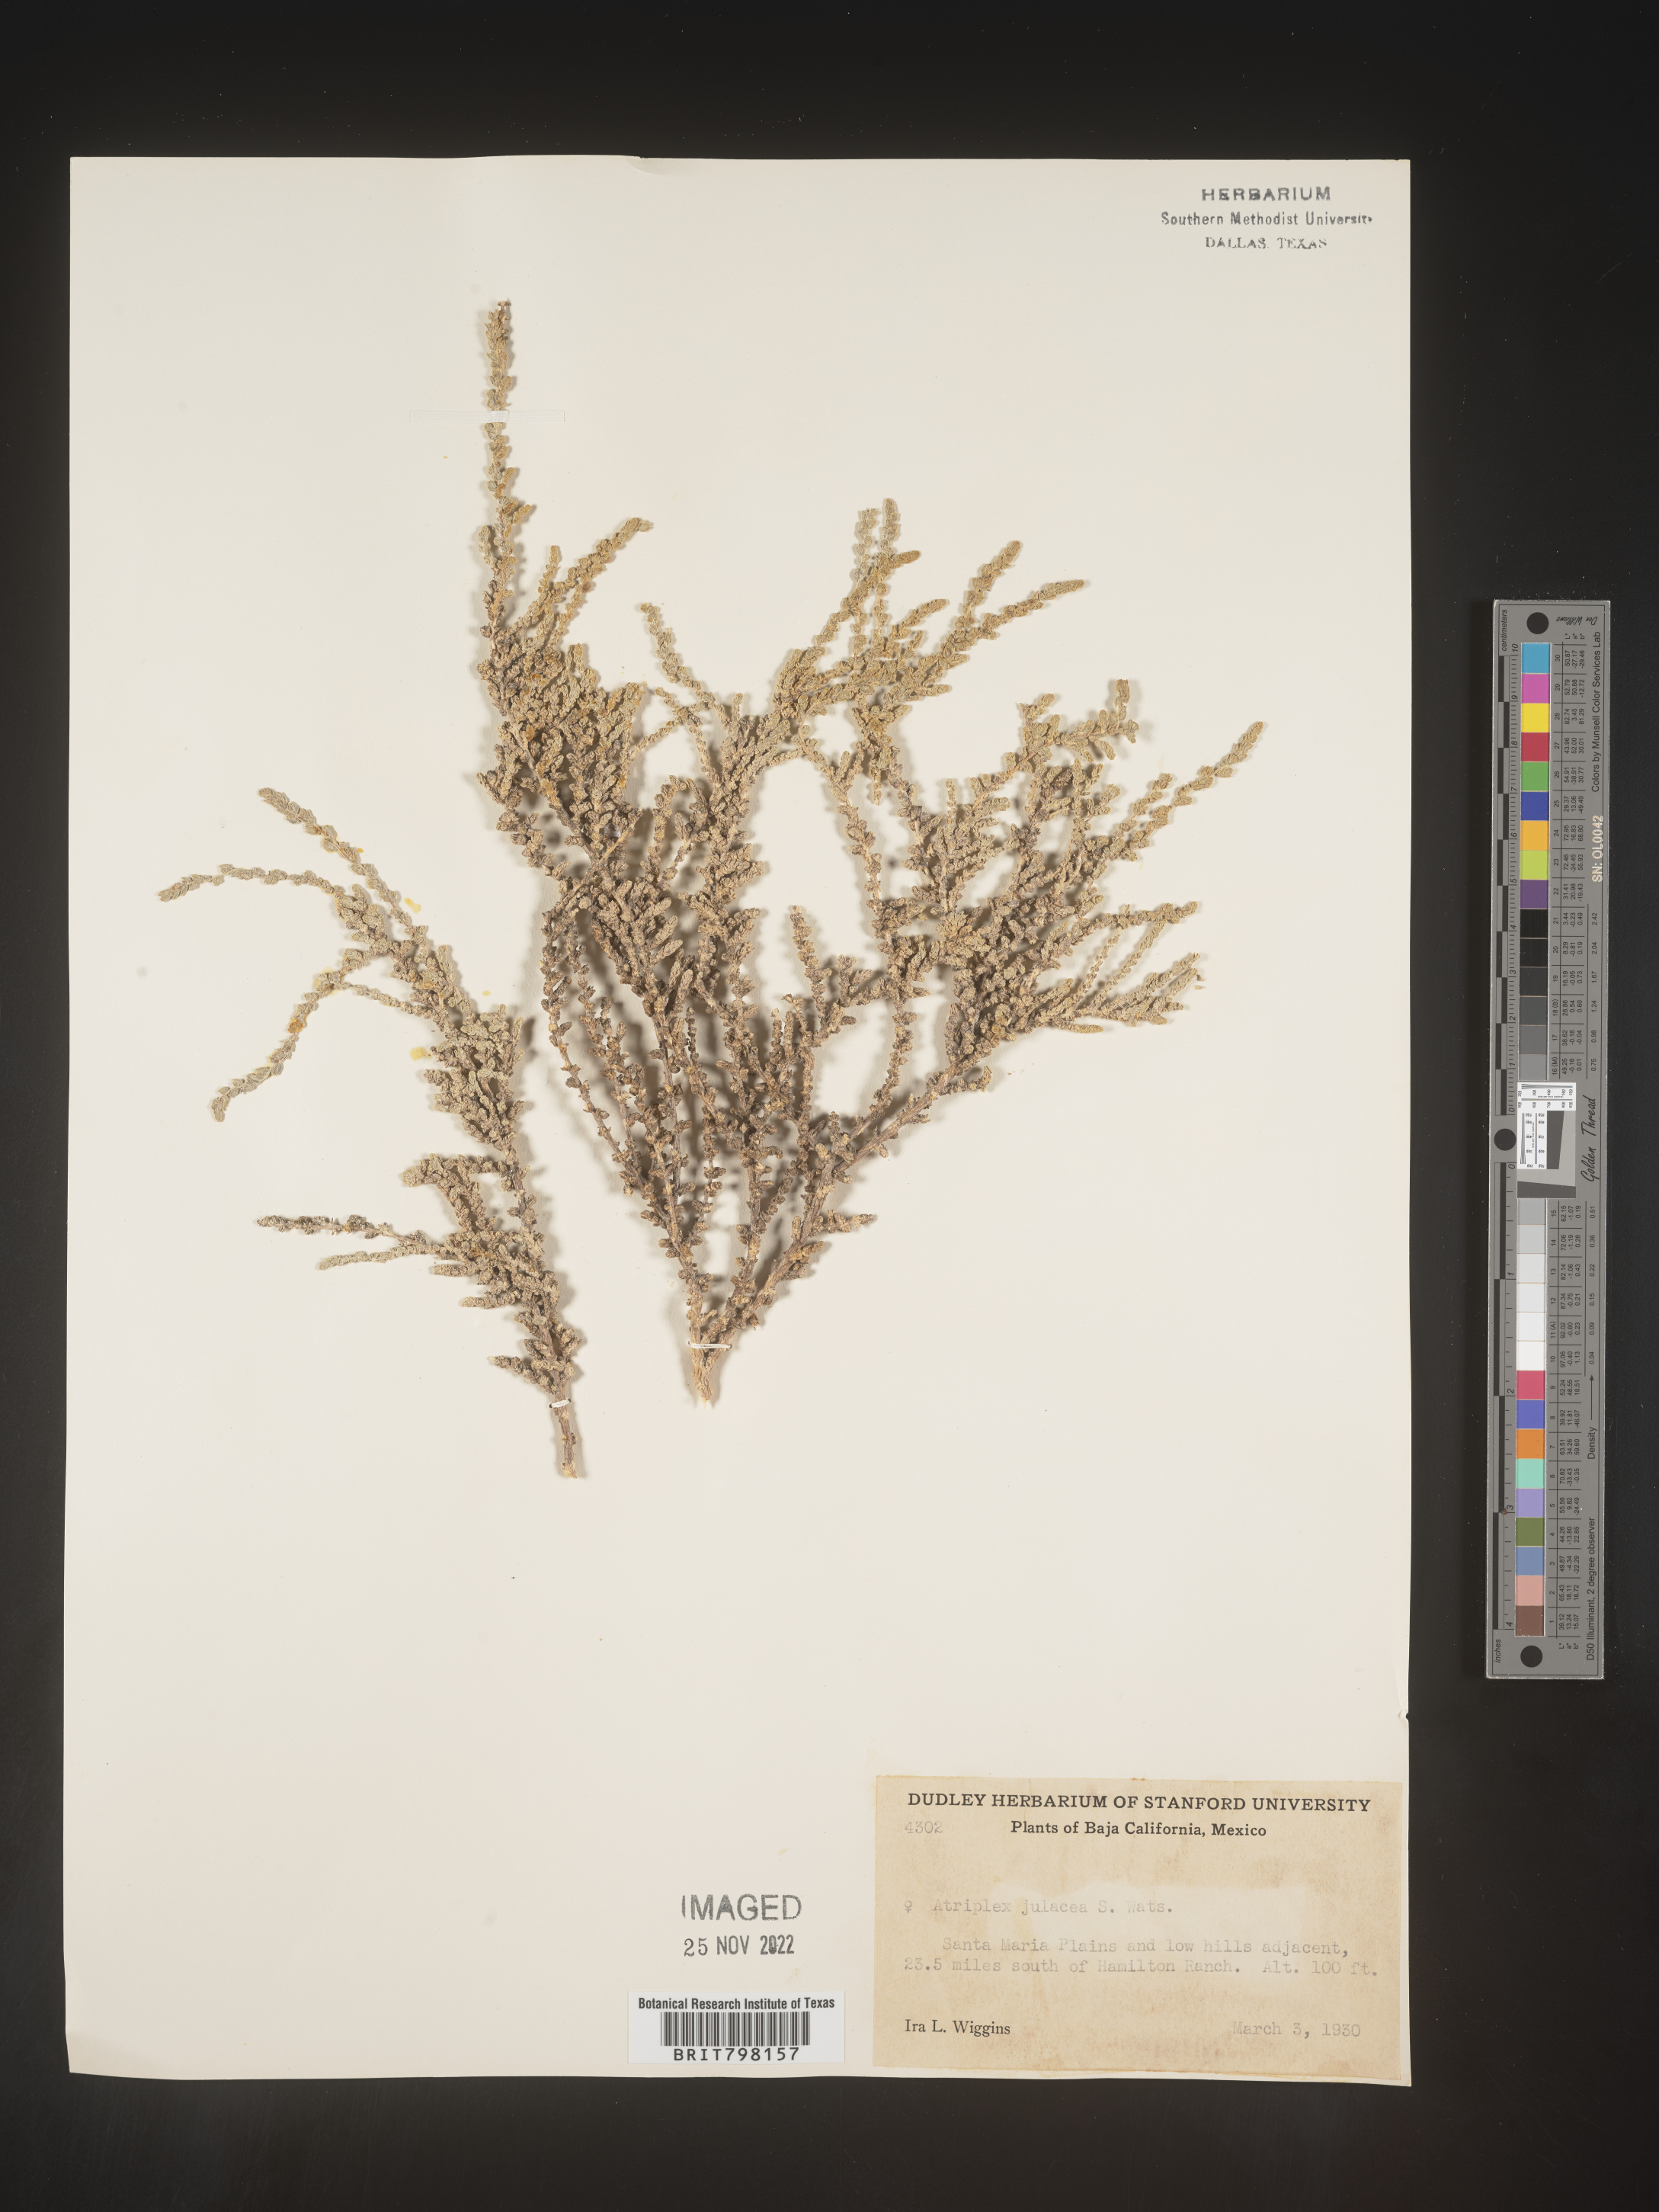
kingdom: Plantae
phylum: Tracheophyta
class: Magnoliopsida
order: Caryophyllales
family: Amaranthaceae
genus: Atriplex
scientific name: Atriplex
